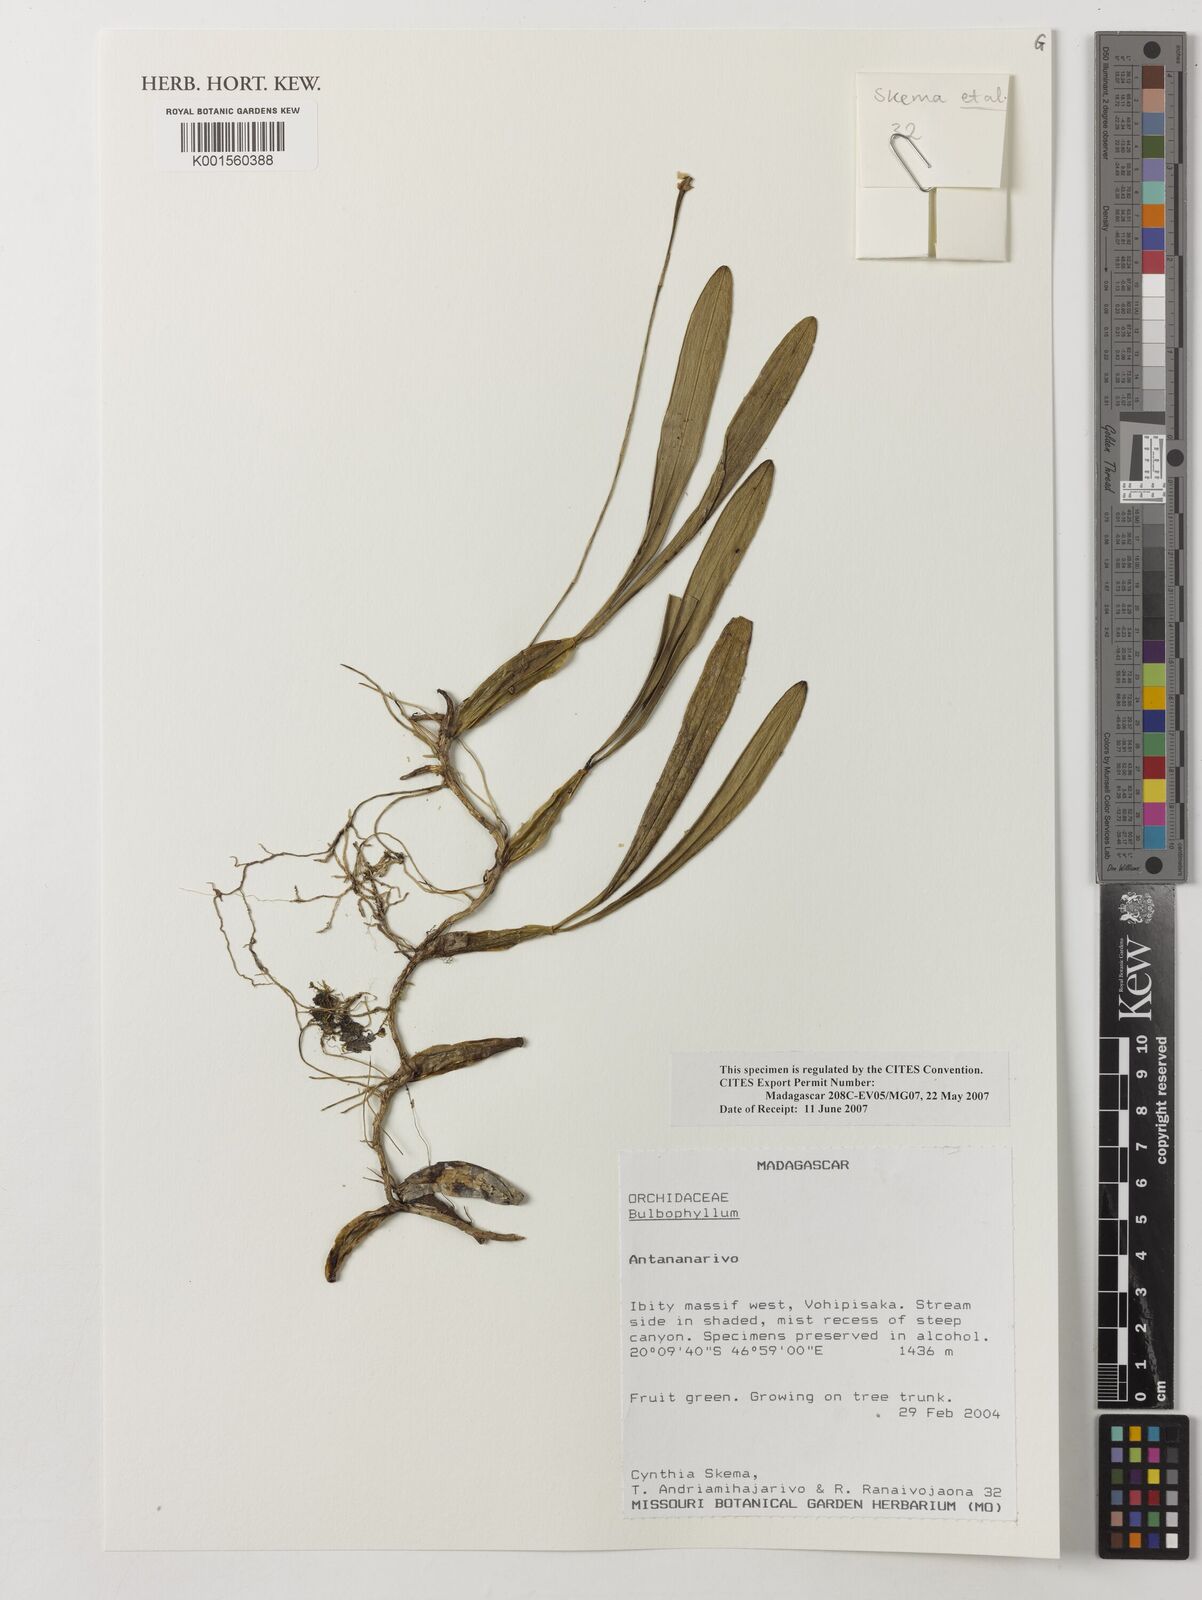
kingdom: Plantae
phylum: Tracheophyta
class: Liliopsida
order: Asparagales
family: Orchidaceae
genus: Bulbophyllum
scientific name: Bulbophyllum
